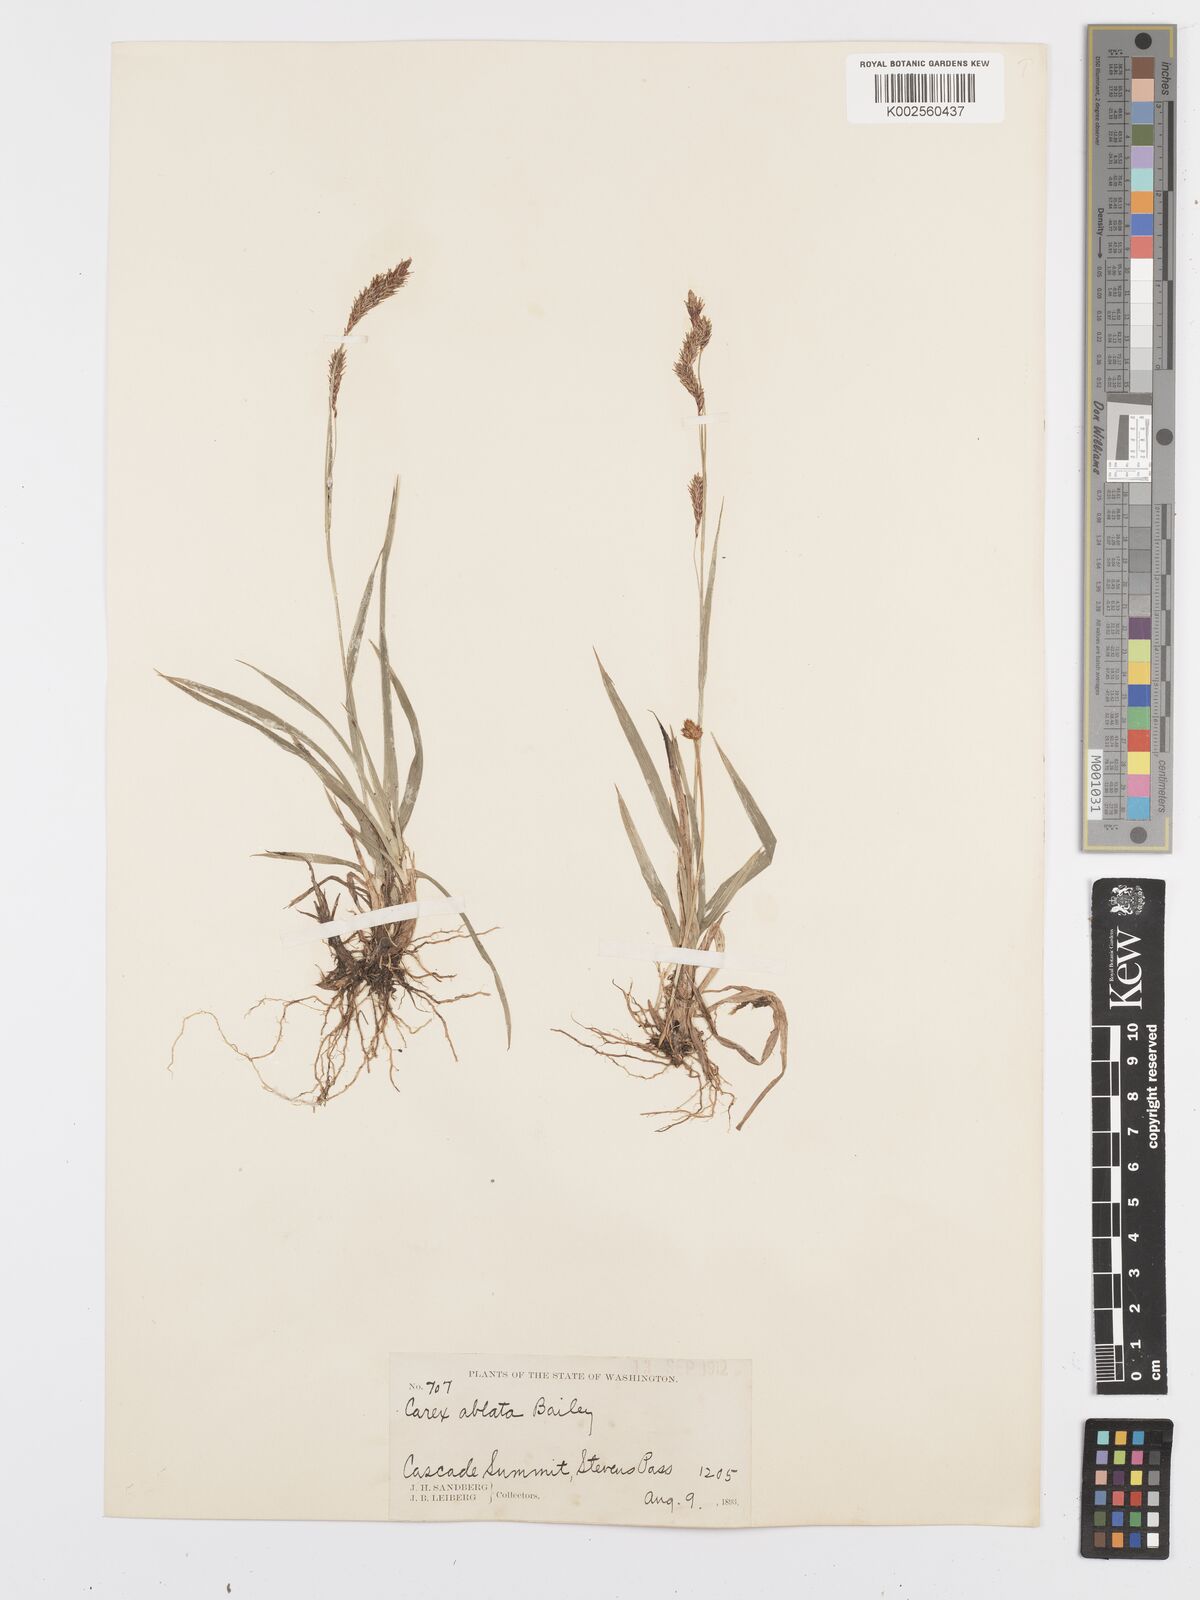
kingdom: Plantae
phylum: Tracheophyta
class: Liliopsida
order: Poales
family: Cyperaceae
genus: Carex
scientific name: Carex luzulina
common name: Spring sedge
